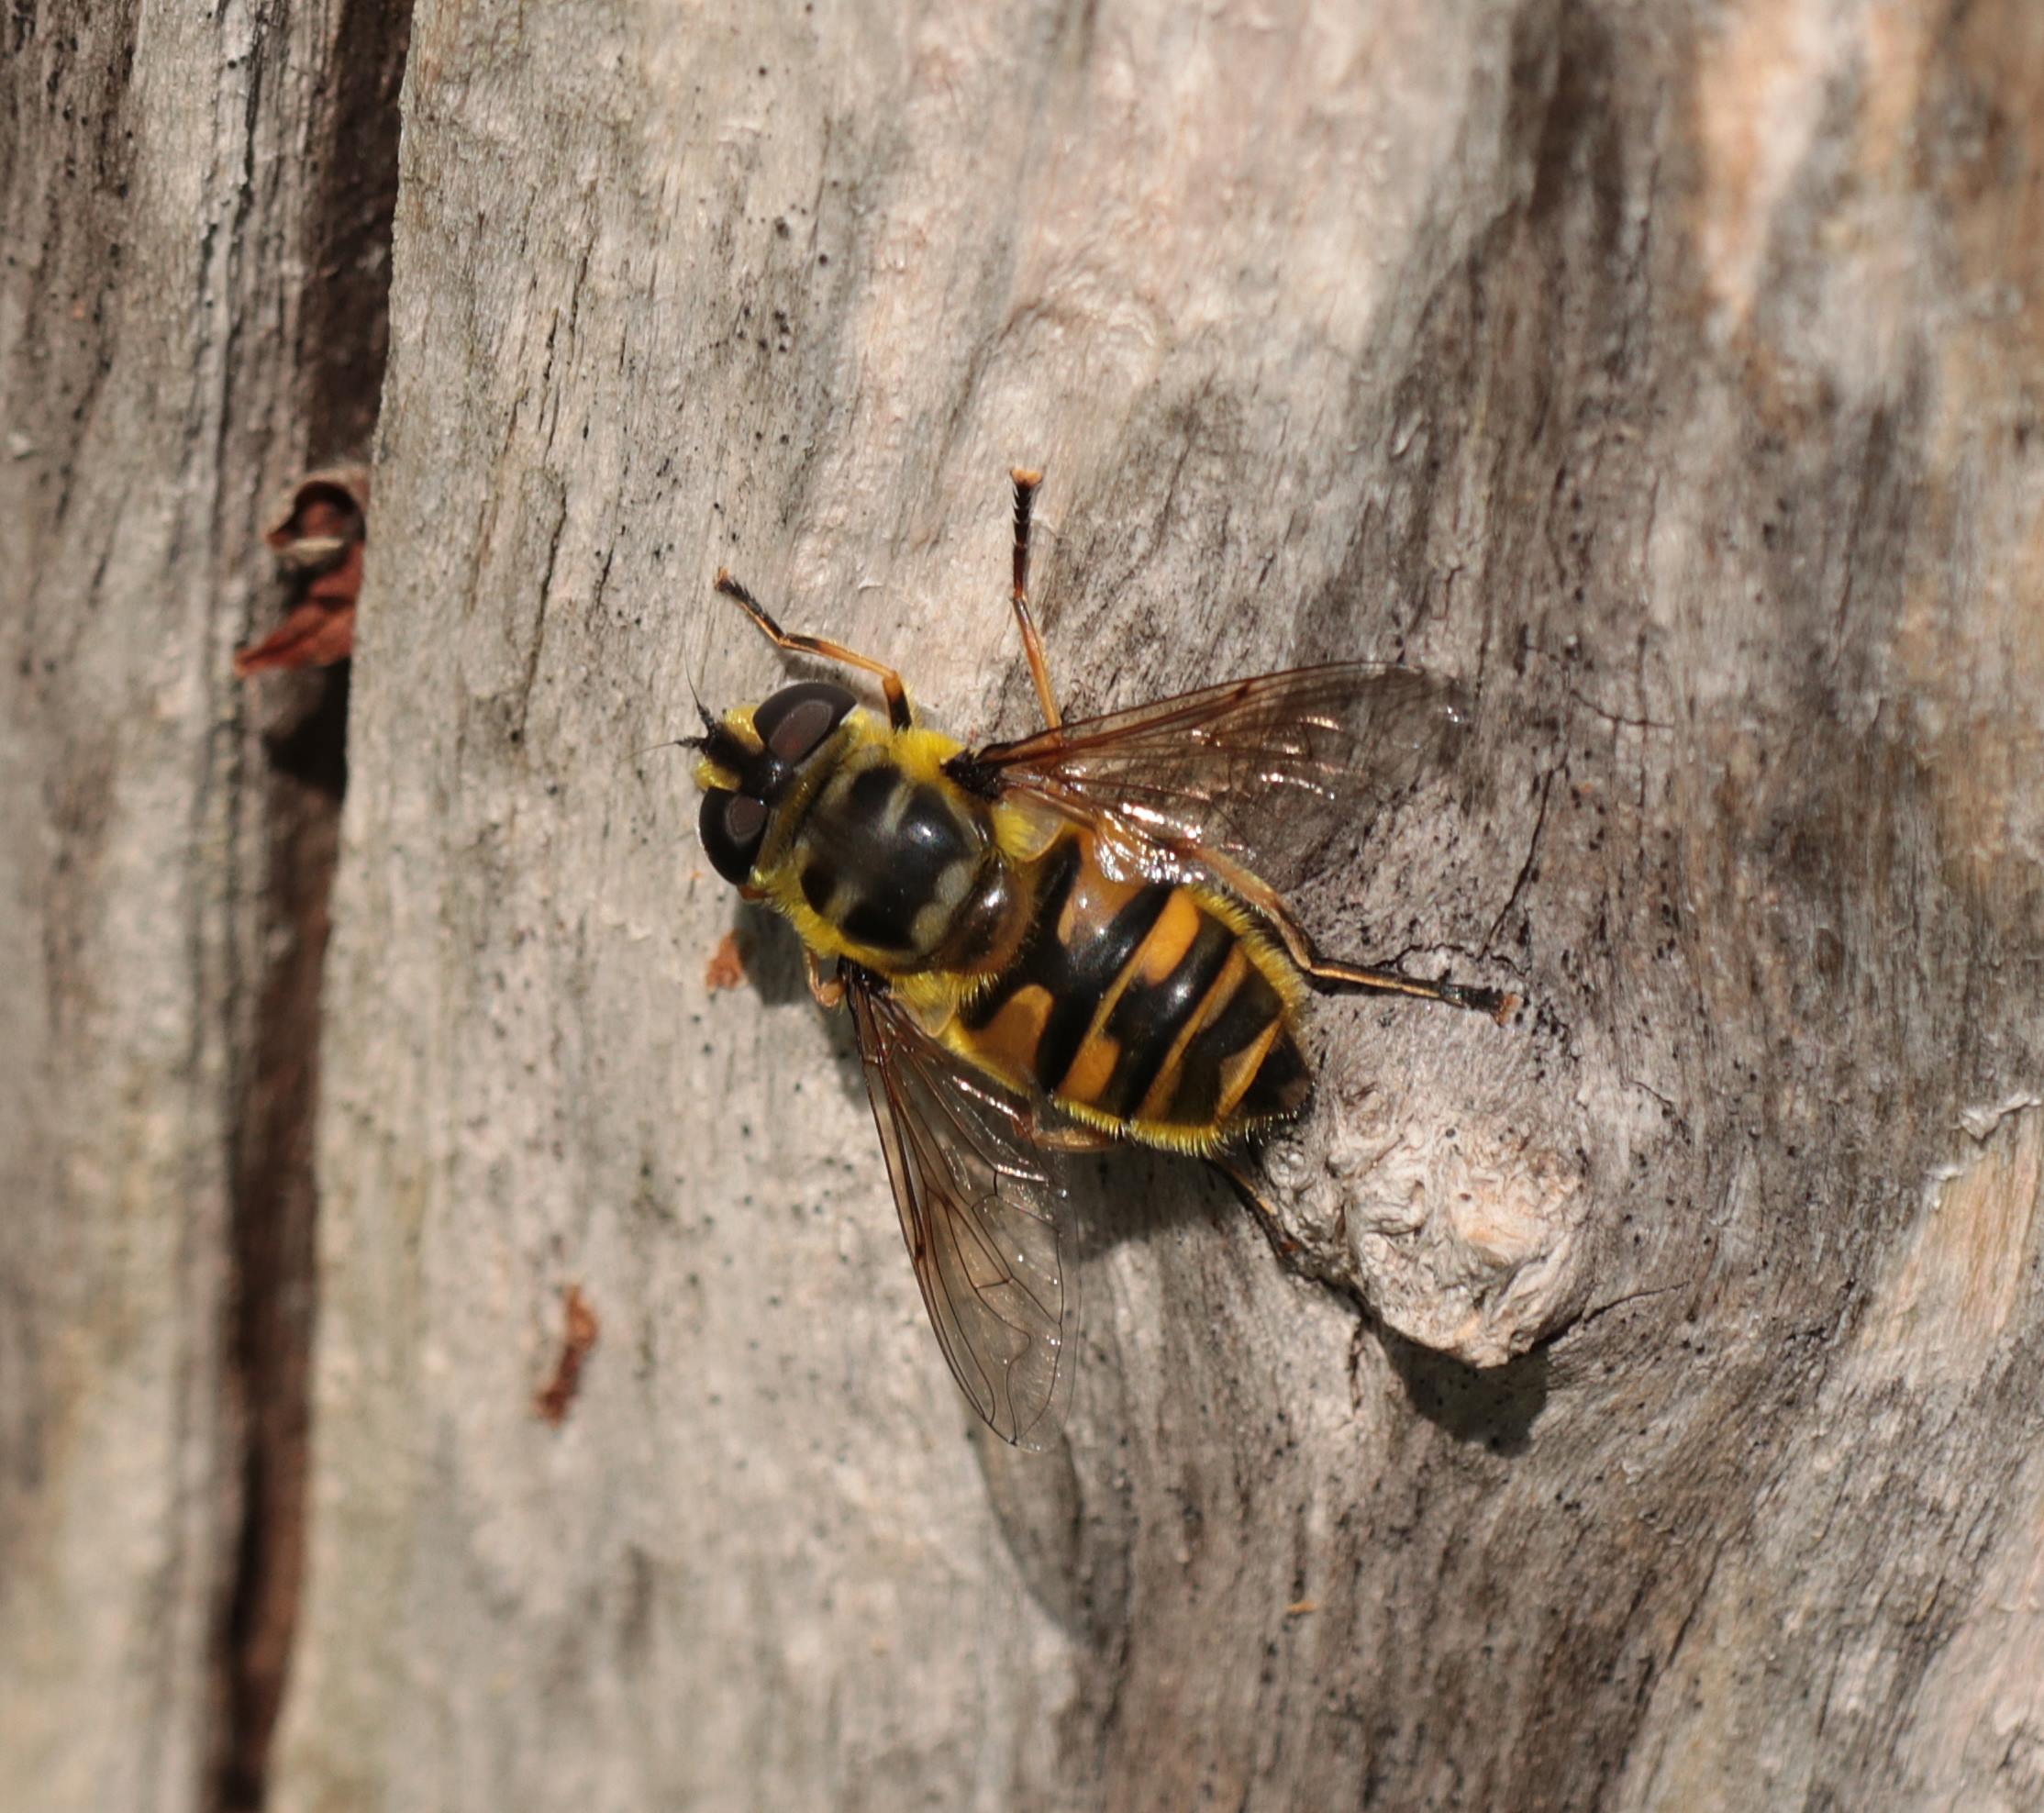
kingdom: Animalia
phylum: Arthropoda
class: Insecta
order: Diptera
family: Syrphidae
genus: Myathropa
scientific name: Myathropa florea
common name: Dødningehoved-svirreflue
